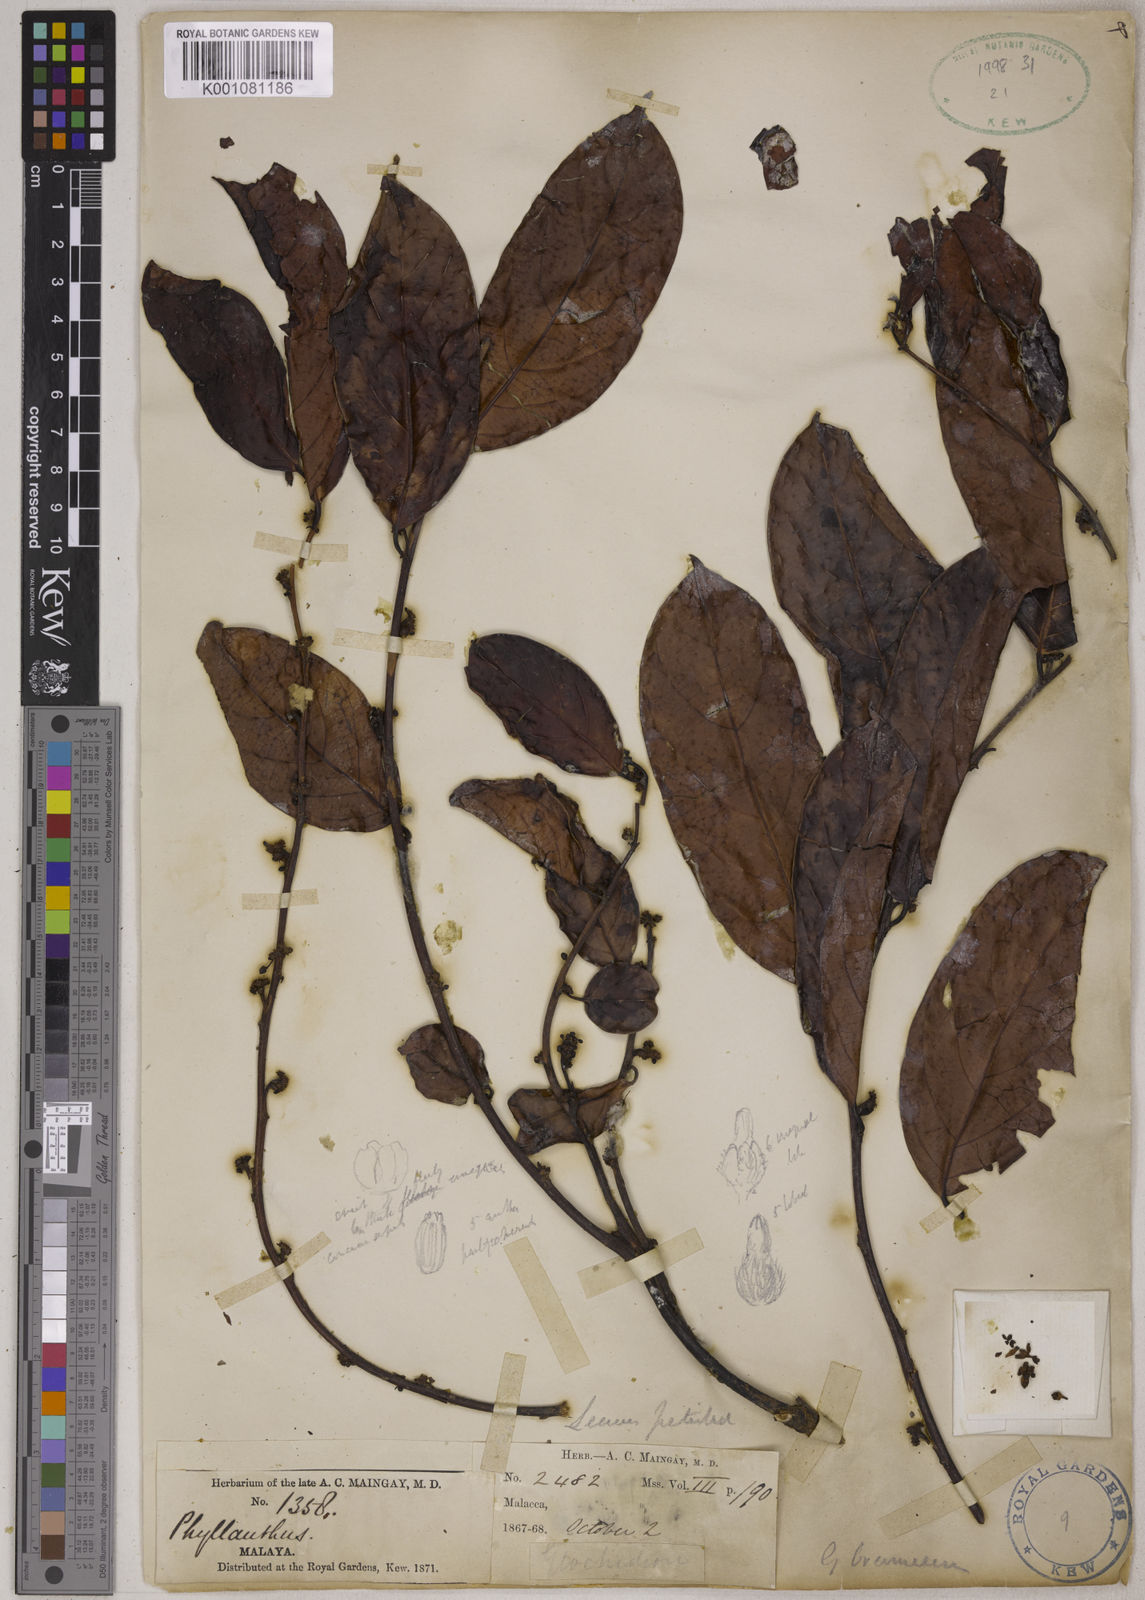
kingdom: Plantae
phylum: Tracheophyta
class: Magnoliopsida
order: Malpighiales
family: Phyllanthaceae
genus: Glochidion
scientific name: Glochidion zeylanicum
